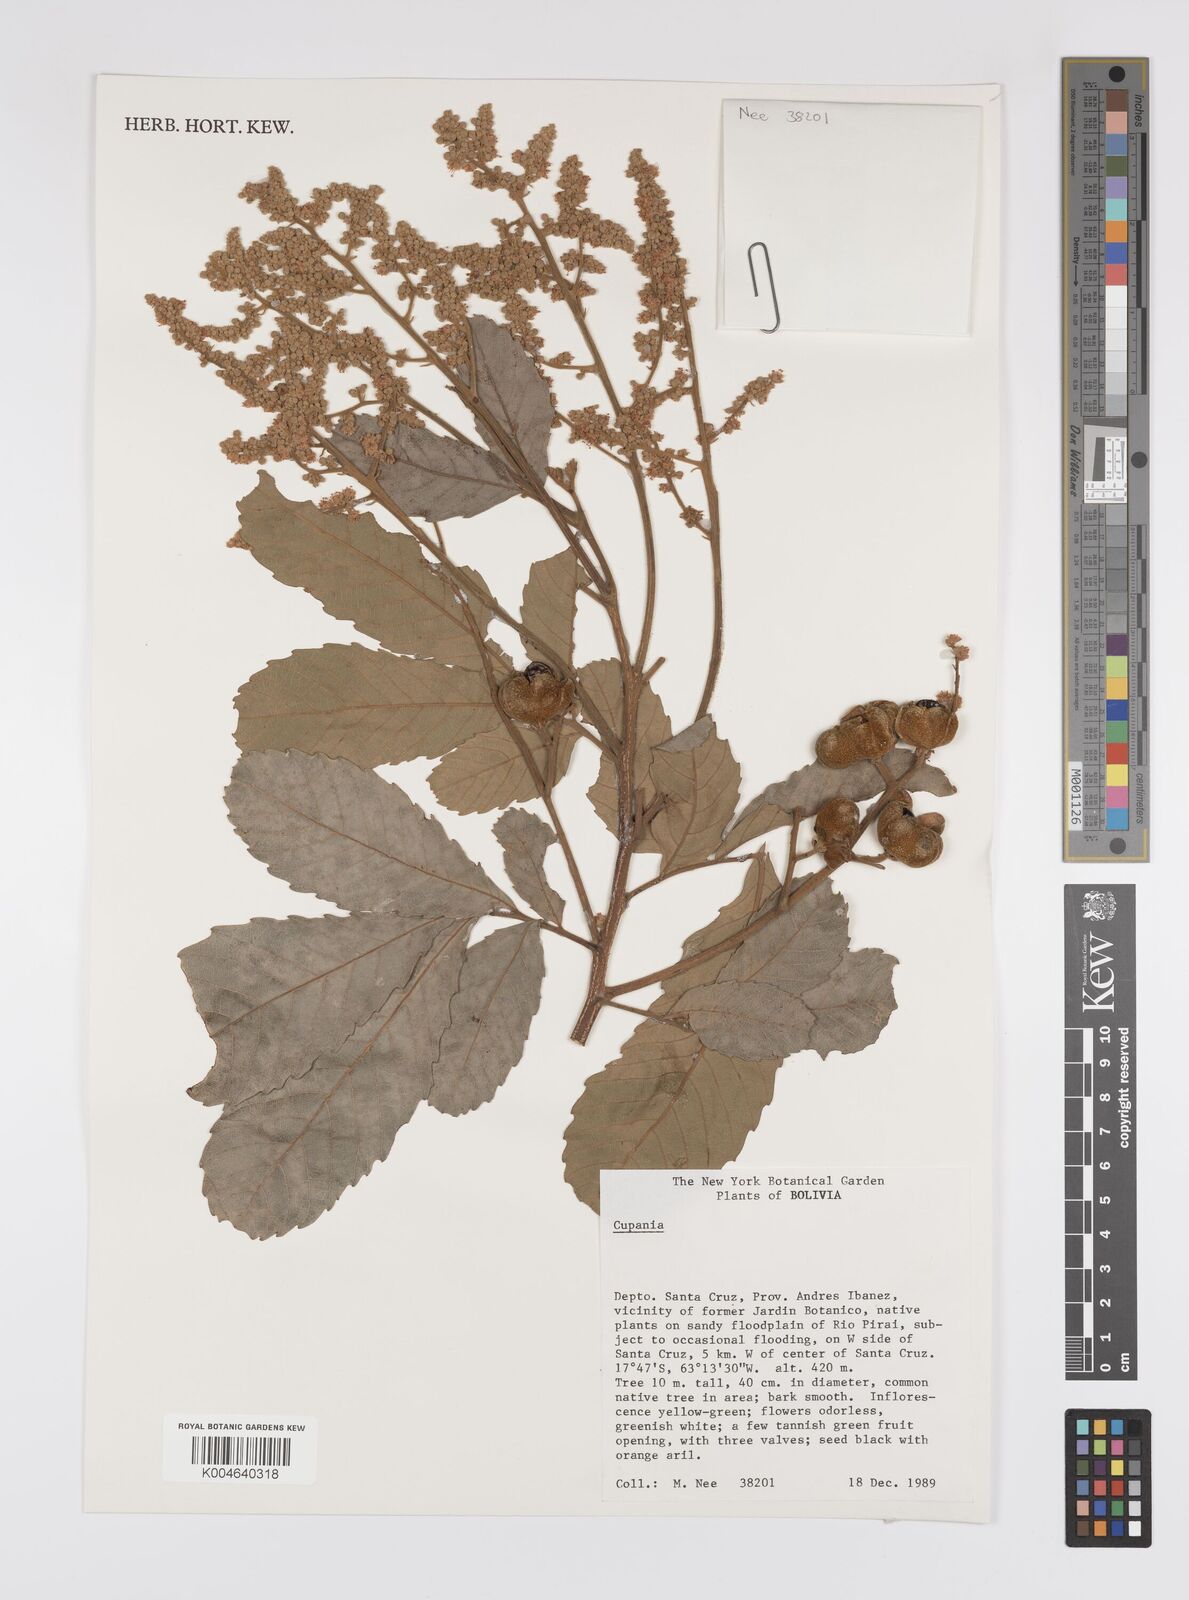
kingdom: Plantae
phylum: Tracheophyta
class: Magnoliopsida
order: Sapindales
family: Sapindaceae
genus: Cupania
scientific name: Cupania
